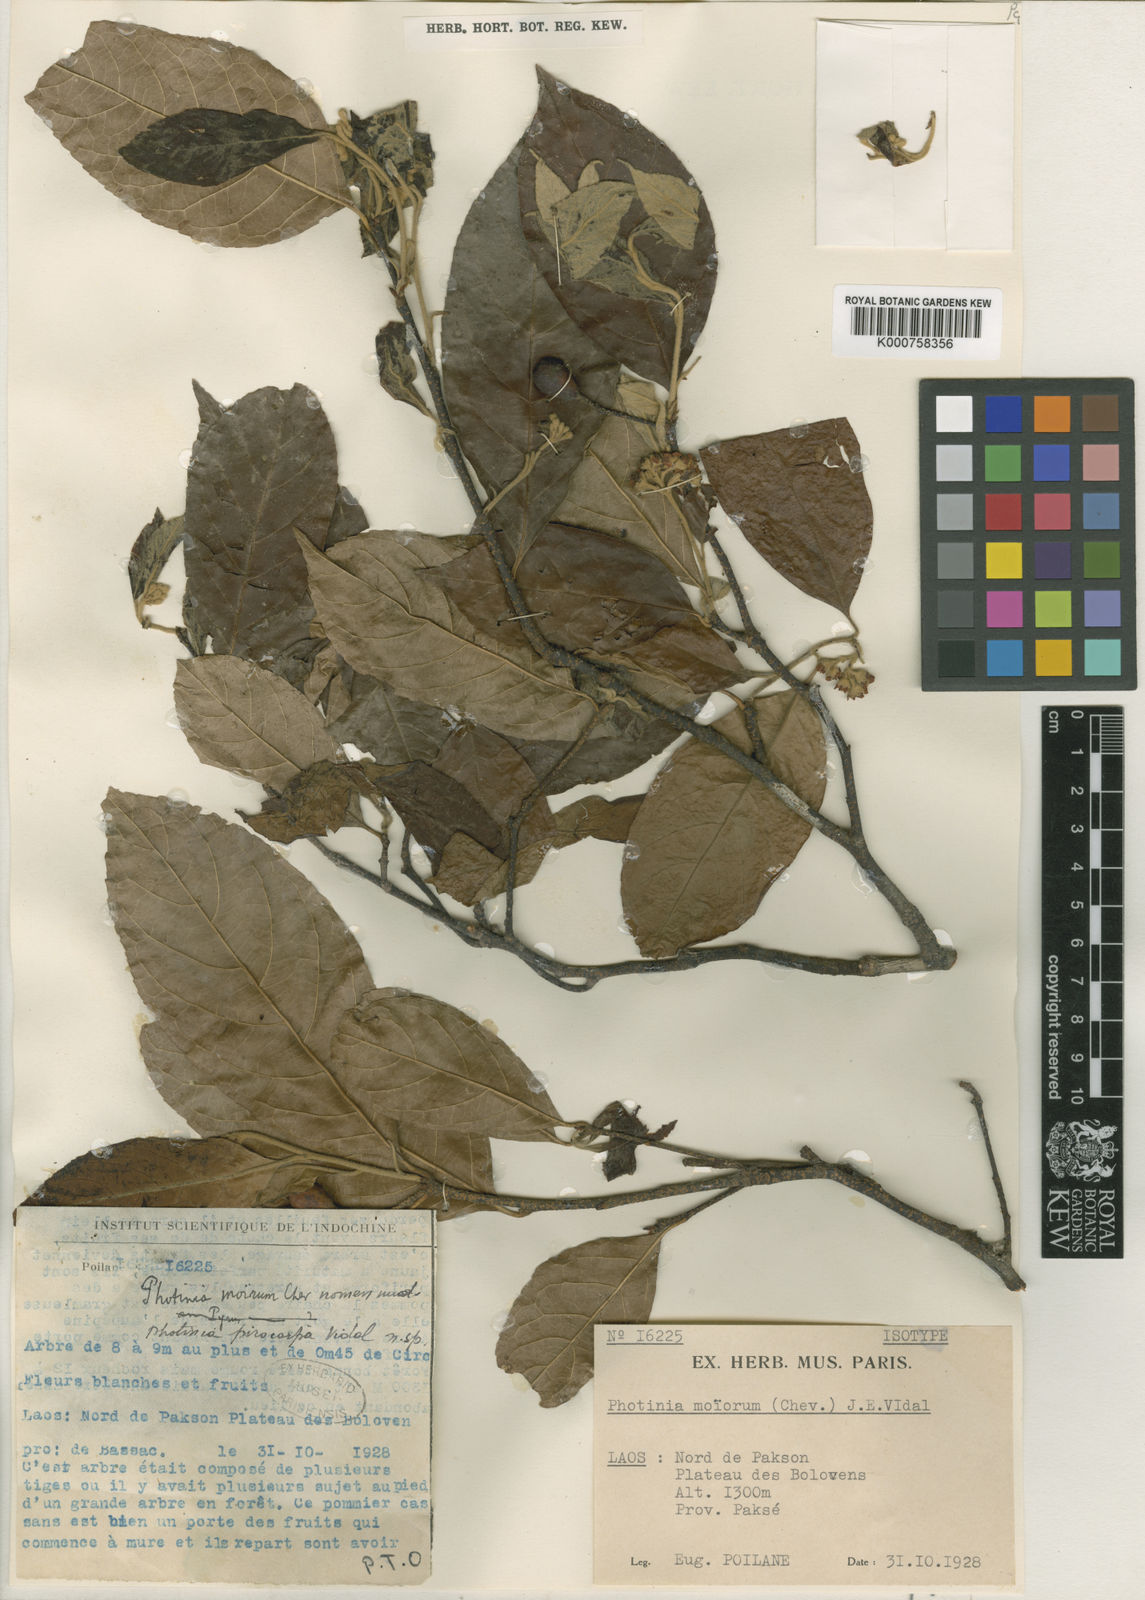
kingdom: Plantae
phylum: Tracheophyta
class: Magnoliopsida
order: Rosales
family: Rosaceae
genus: Pourthiaea
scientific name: Pourthiaea arguta
